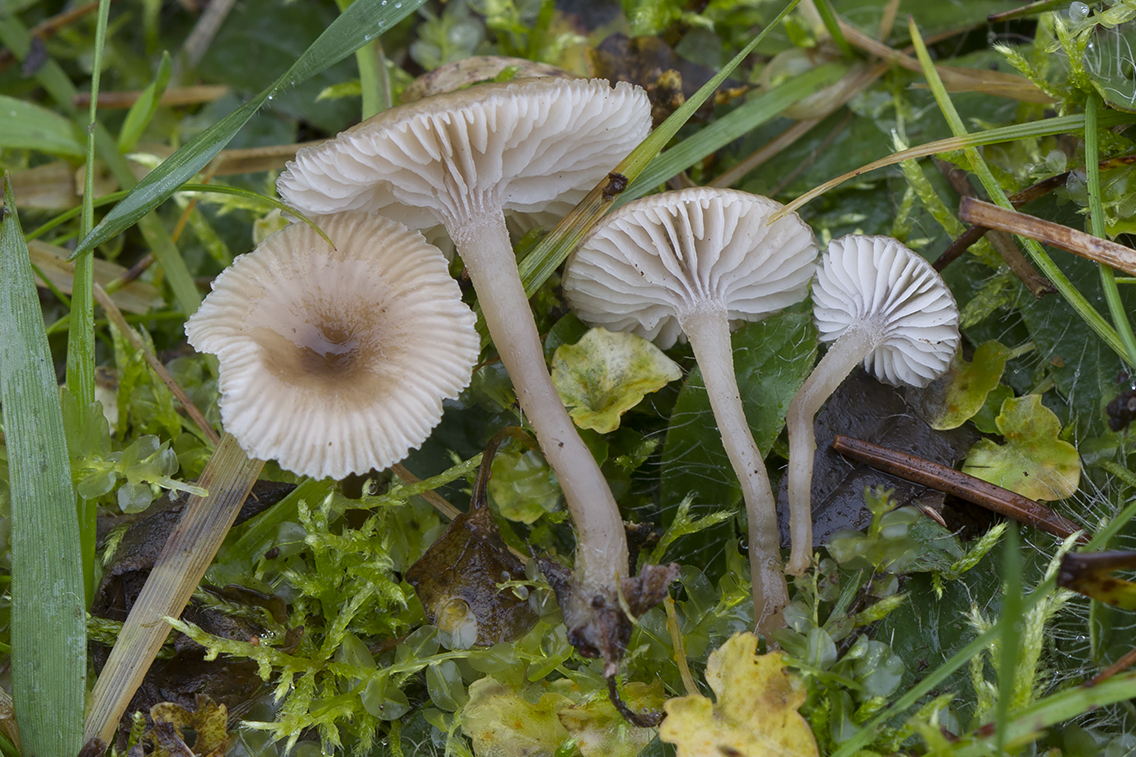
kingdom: Fungi
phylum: Basidiomycota
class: Agaricomycetes
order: Agaricales
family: Tricholomataceae
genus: Gamundia
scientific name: Gamundia
